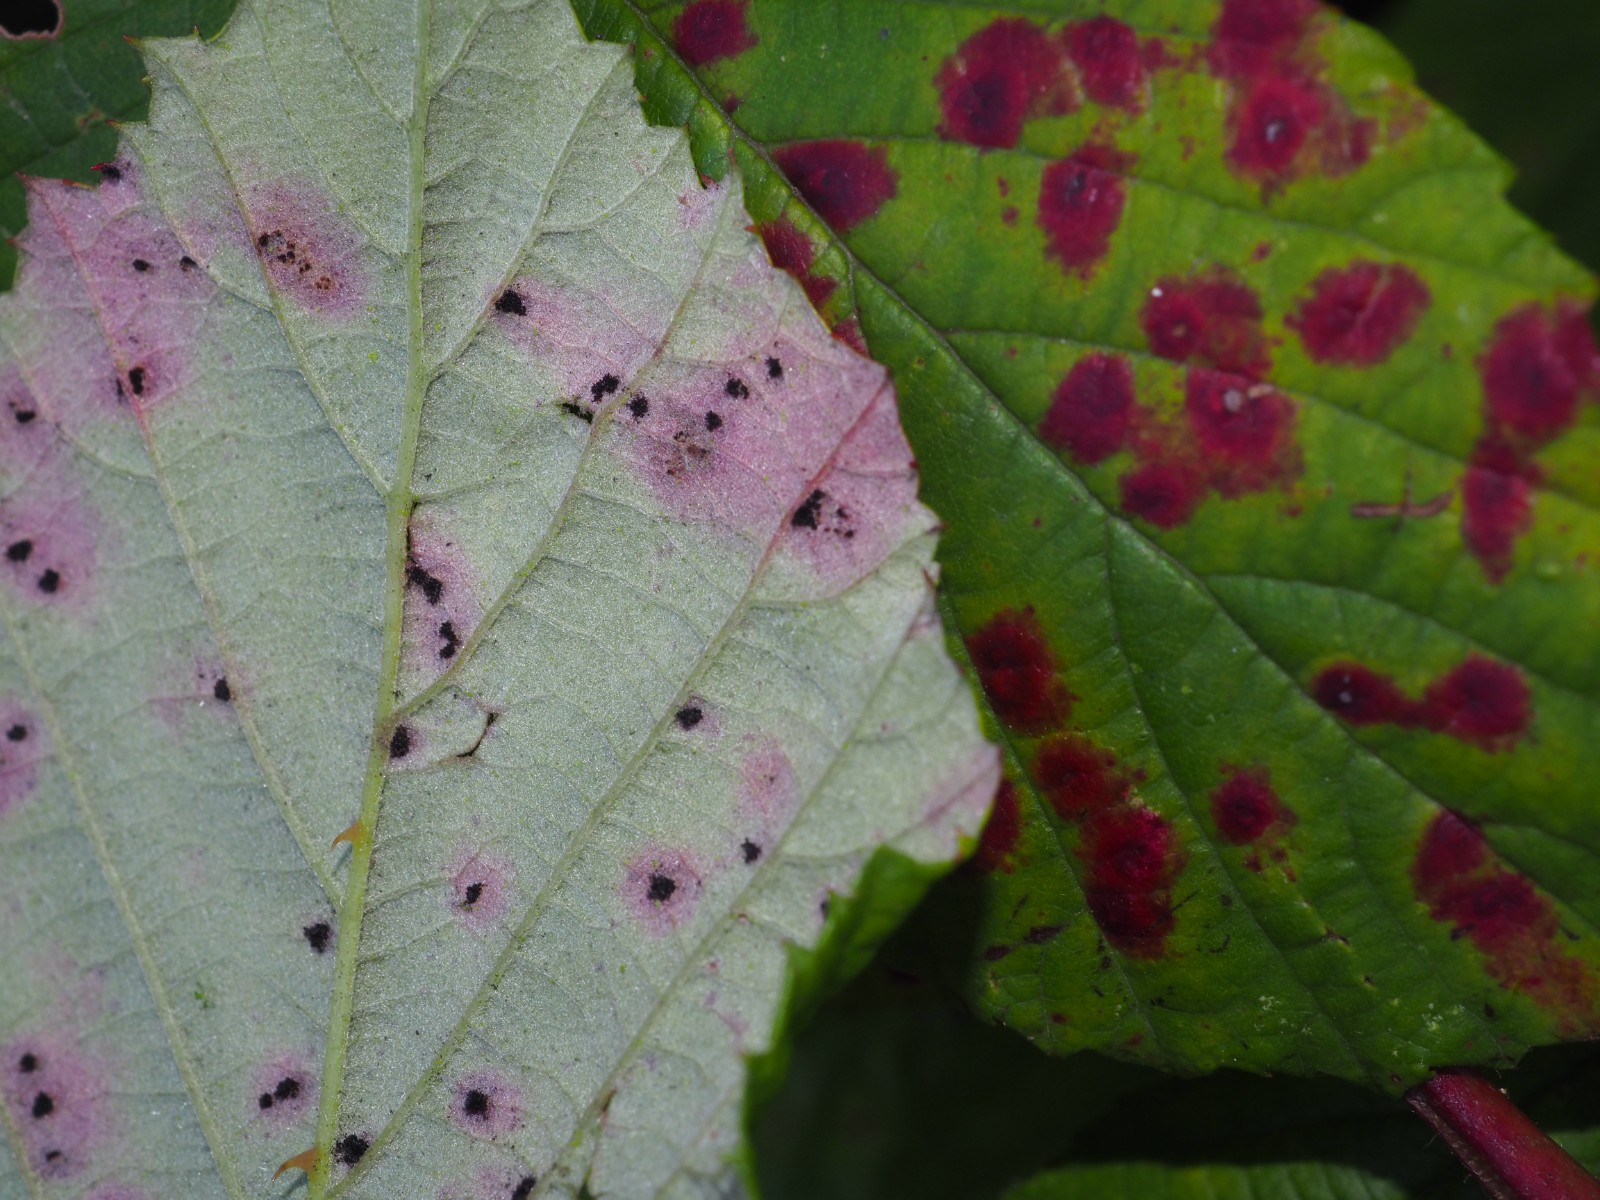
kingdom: Fungi
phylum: Basidiomycota
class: Pucciniomycetes
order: Pucciniales
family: Phragmidiaceae
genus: Phragmidium
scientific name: Phragmidium violaceum
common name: violet flercellerust
